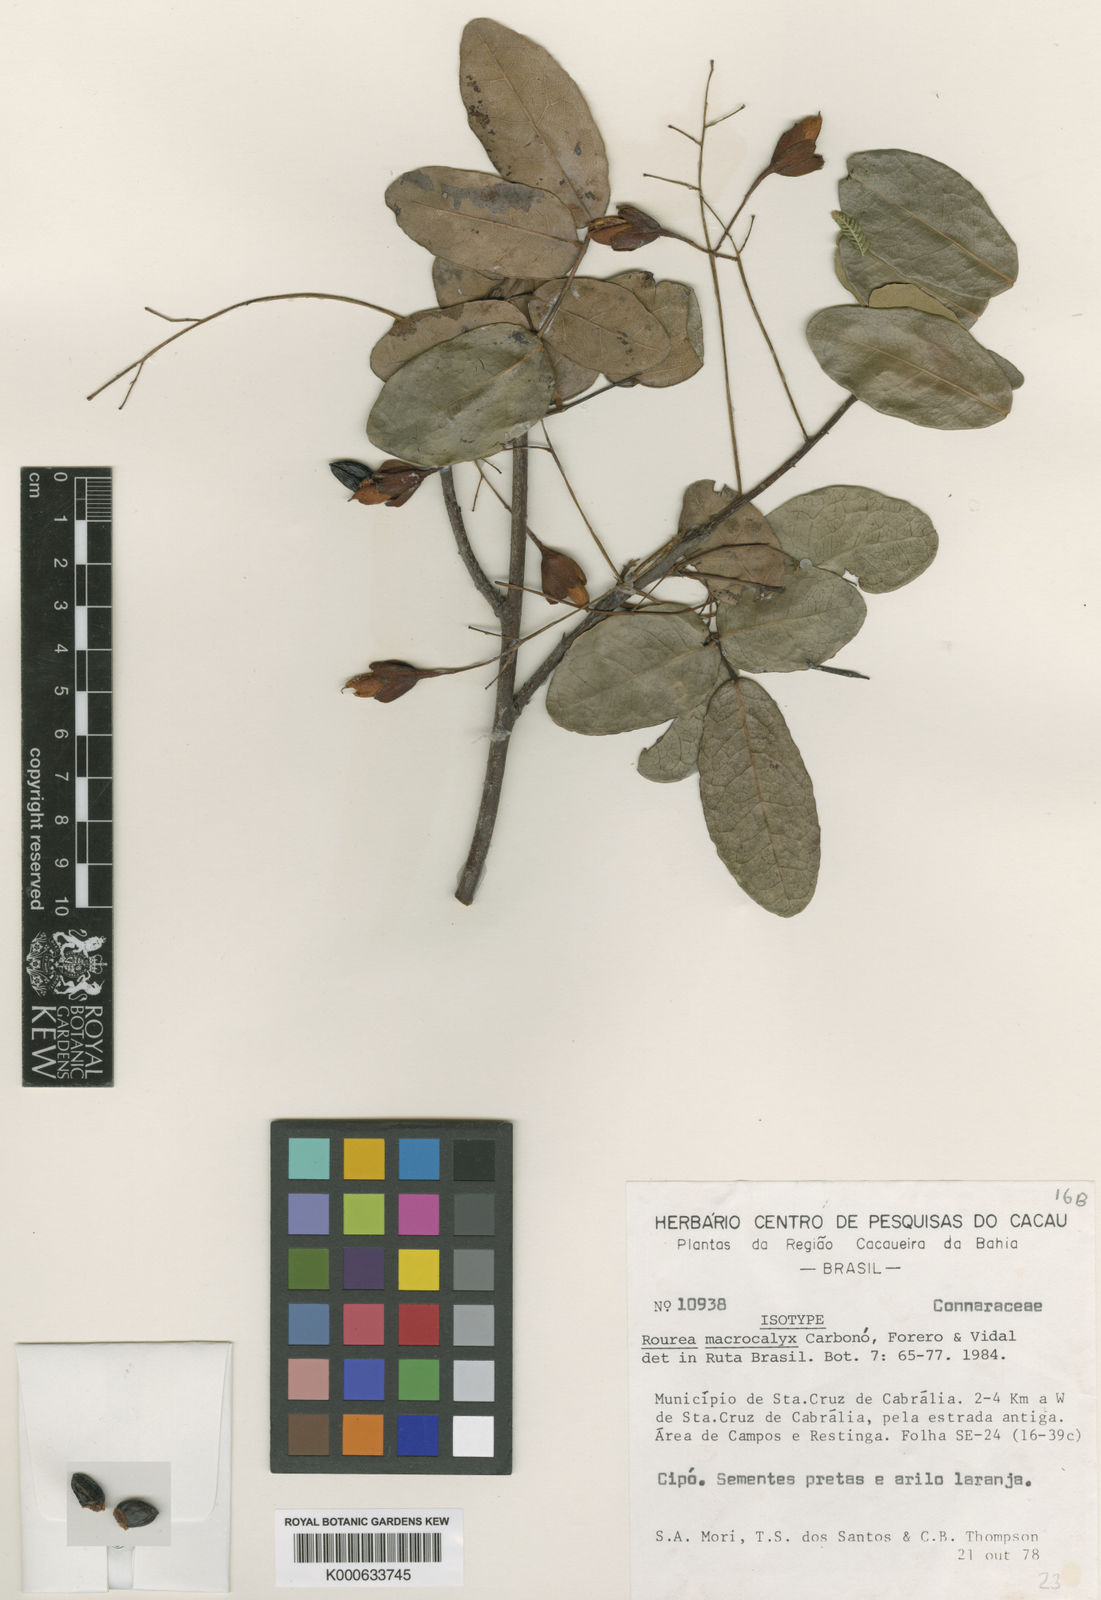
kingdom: Plantae
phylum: Tracheophyta
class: Magnoliopsida
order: Oxalidales
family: Connaraceae
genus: Rourea
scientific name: Rourea
